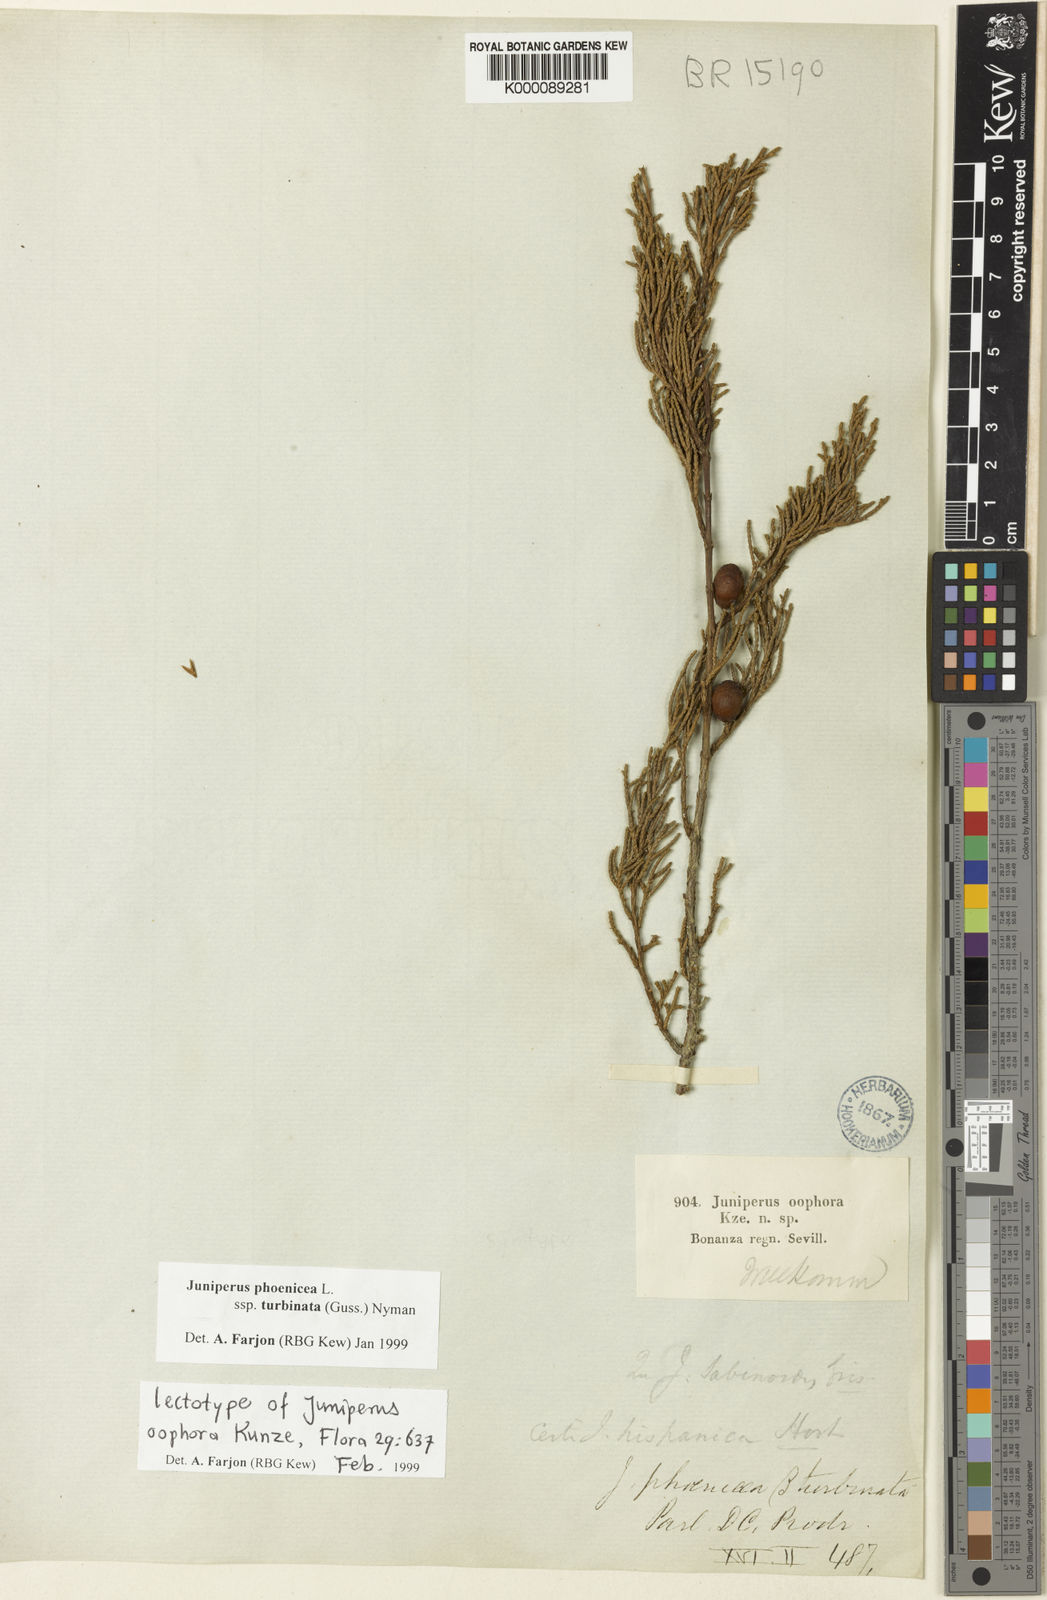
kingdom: Plantae
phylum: Tracheophyta
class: Pinopsida
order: Pinales
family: Cupressaceae
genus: Juniperus
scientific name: Juniperus phoenicea
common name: Phoenician juniper
